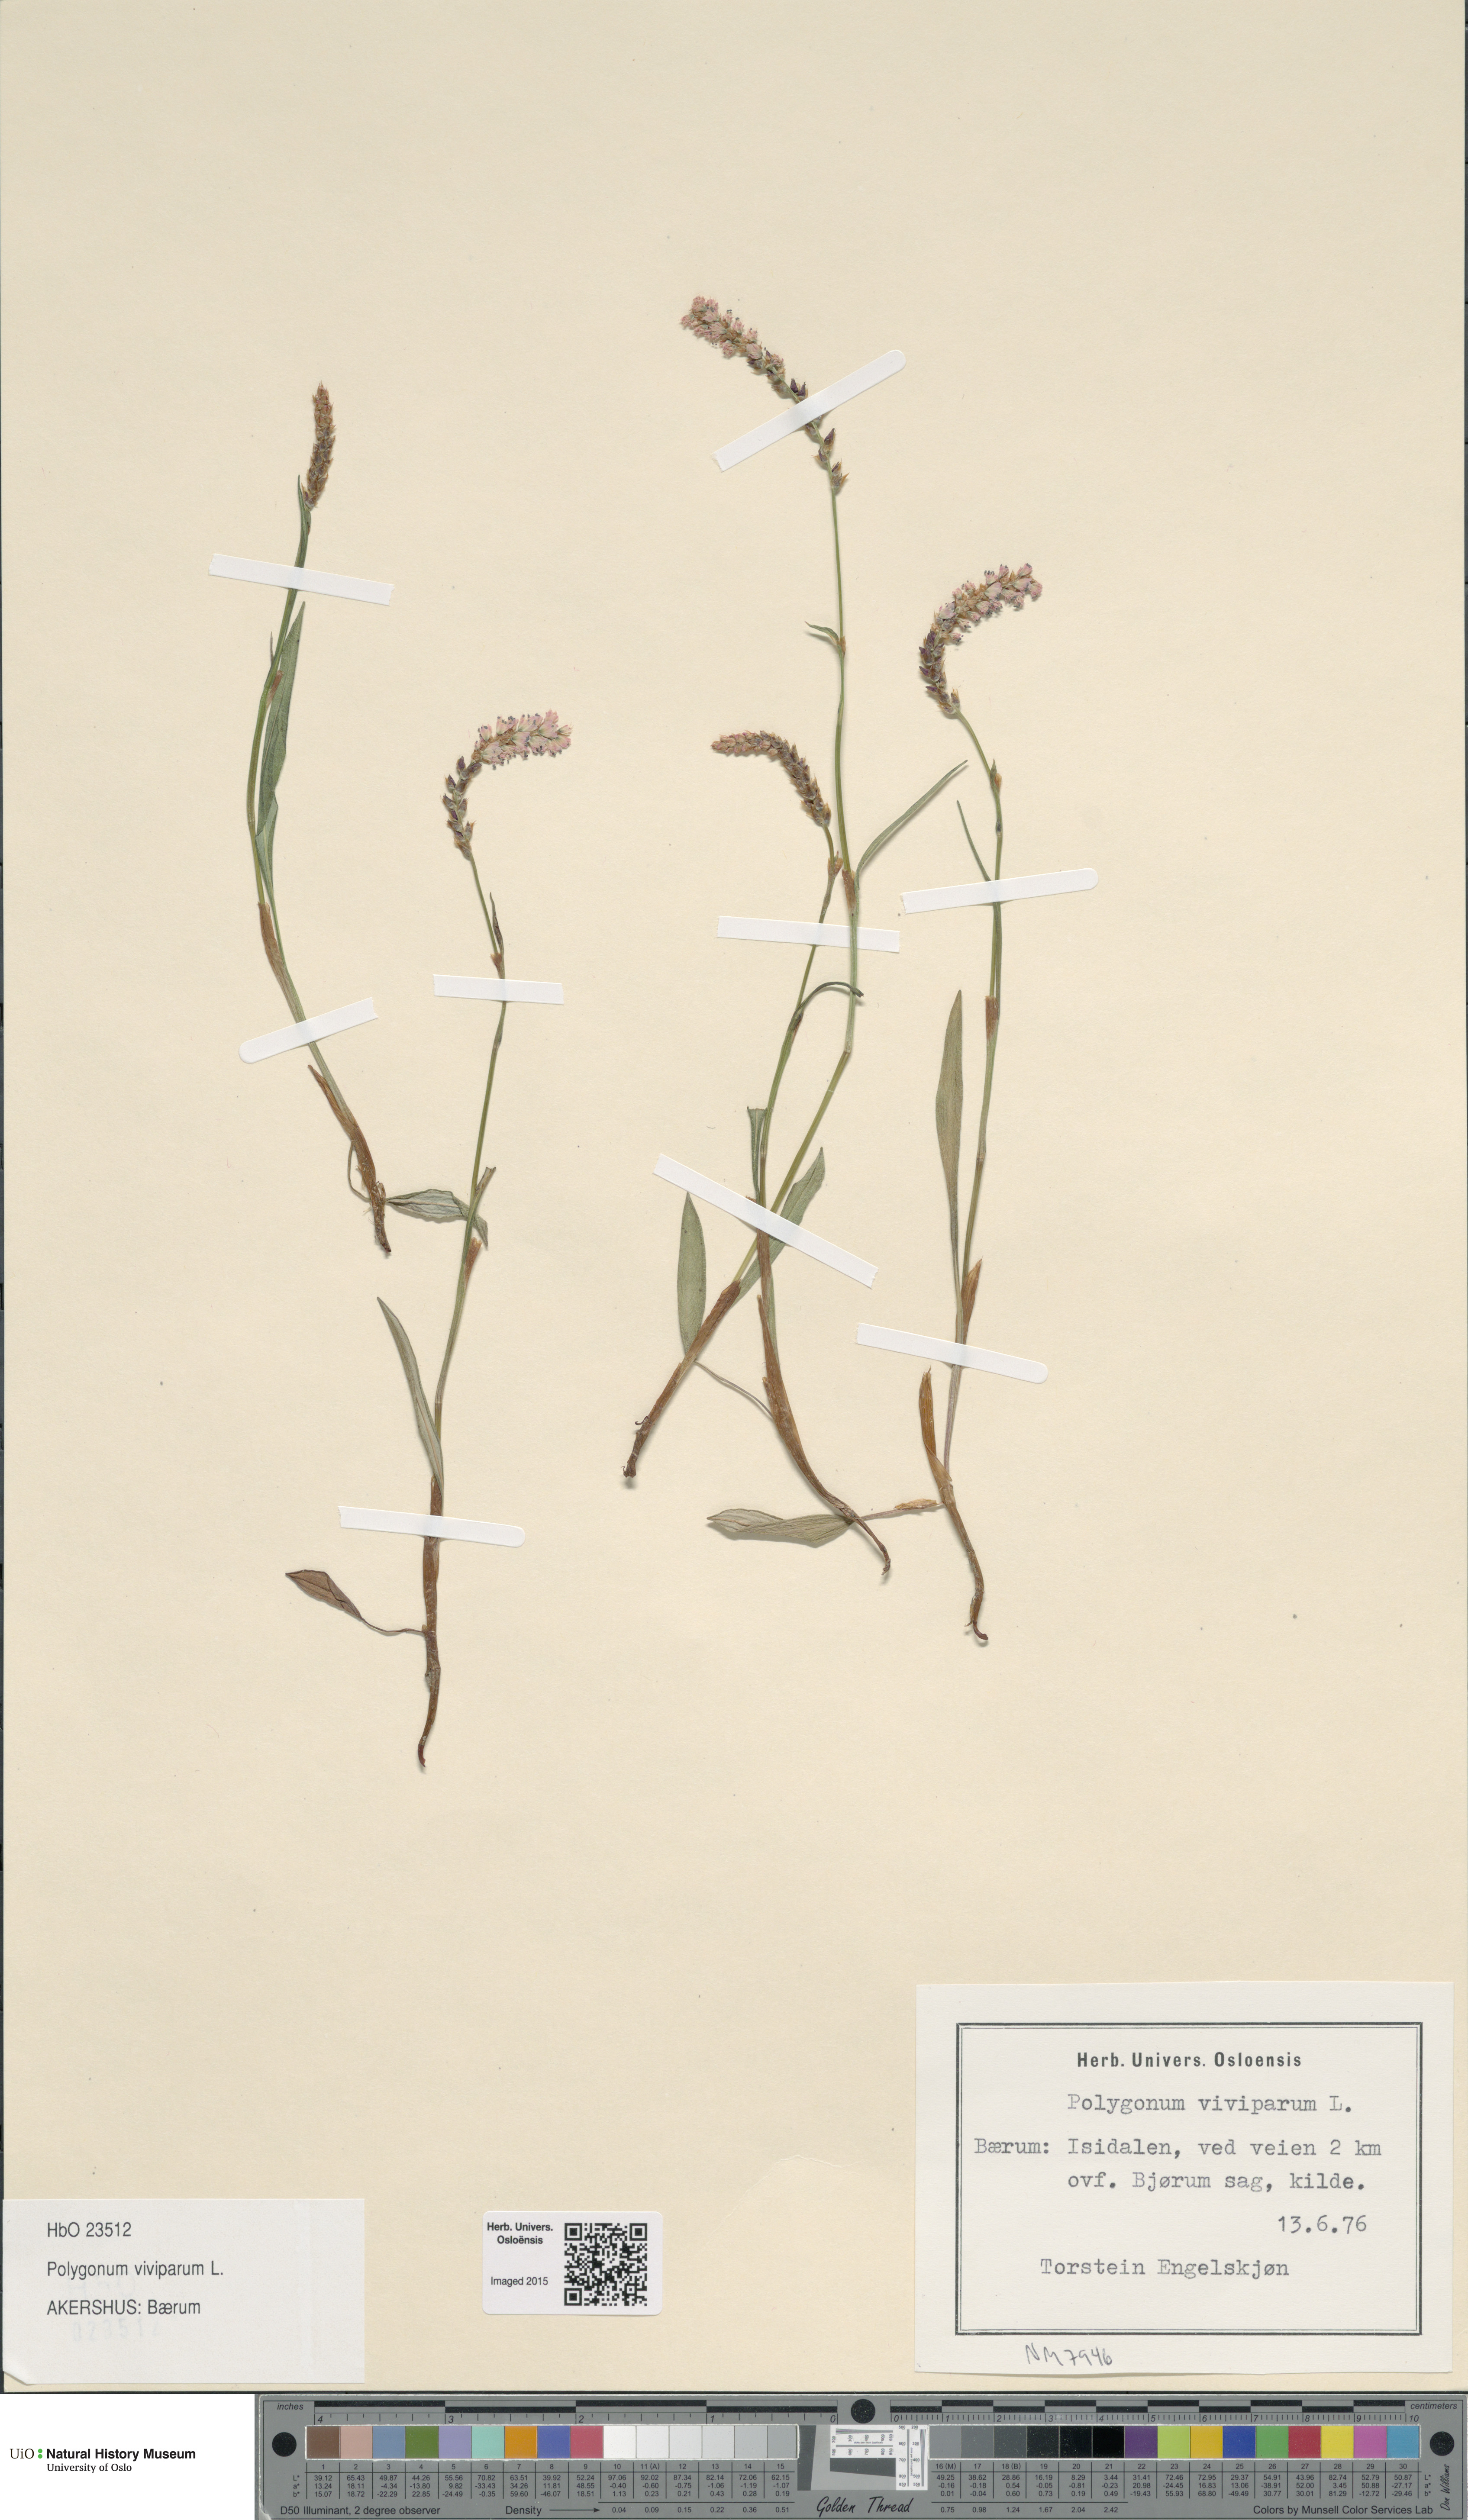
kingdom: Plantae
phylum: Tracheophyta
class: Magnoliopsida
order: Caryophyllales
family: Polygonaceae
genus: Bistorta
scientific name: Bistorta vivipara
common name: Alpine bistort
